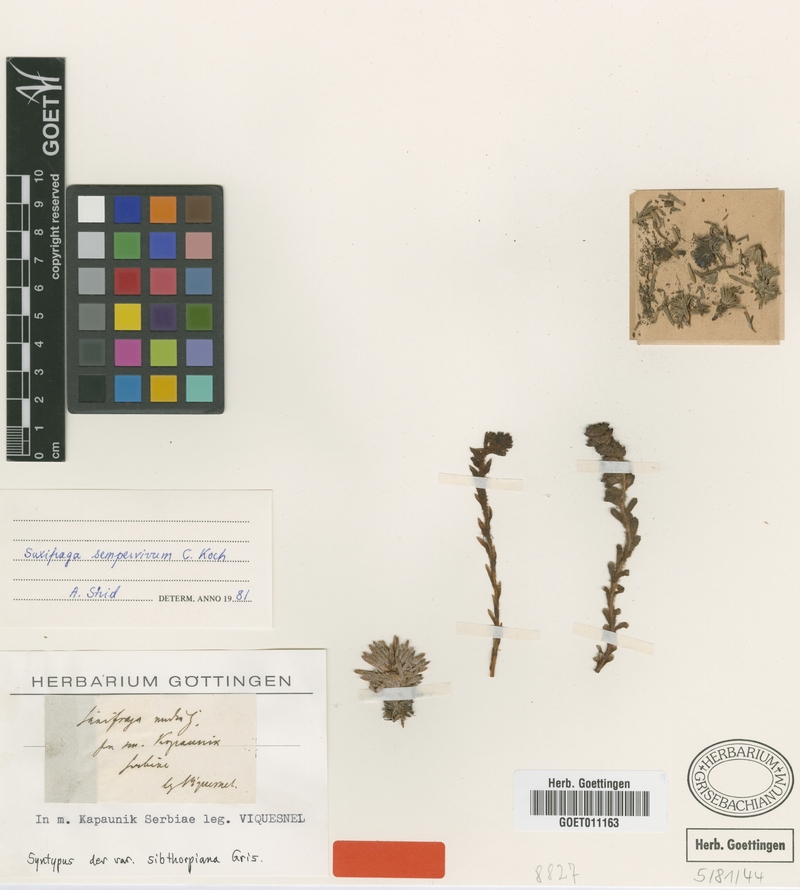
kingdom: Plantae
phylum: Tracheophyta
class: Magnoliopsida
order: Saxifragales
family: Saxifragaceae
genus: Saxifraga
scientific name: Saxifraga sempervivum
